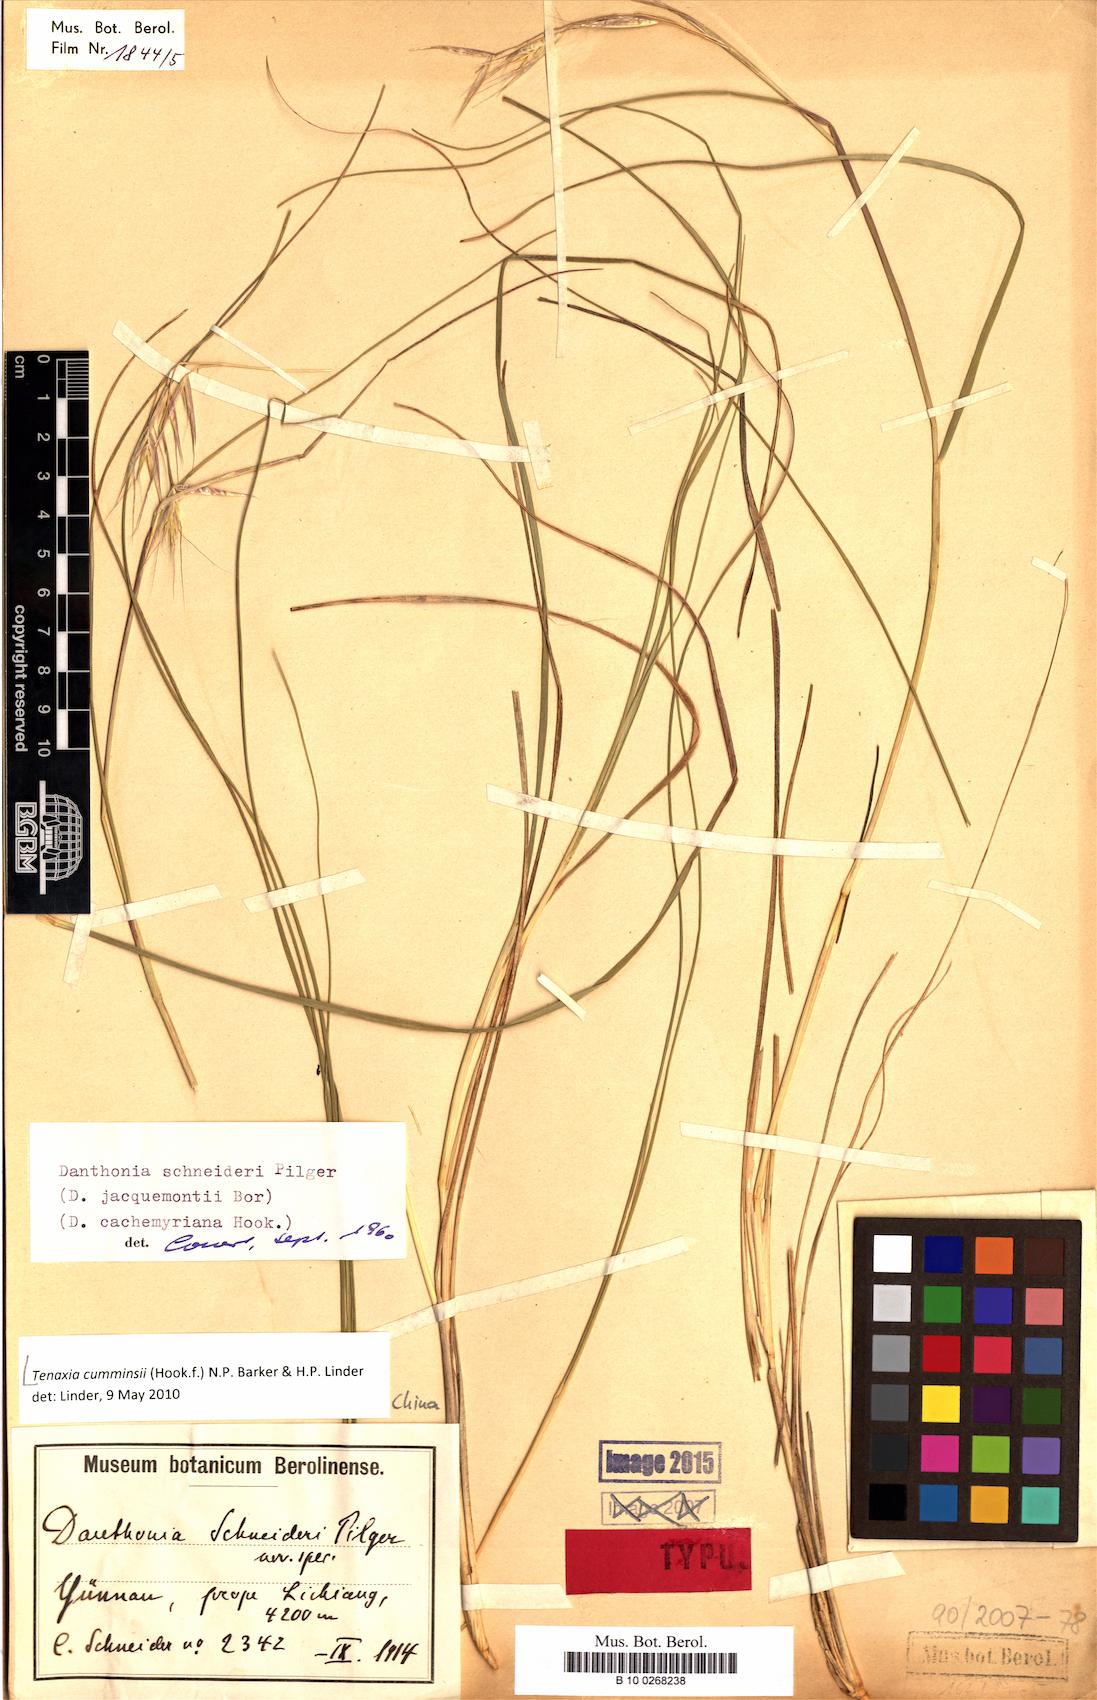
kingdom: Plantae
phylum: Tracheophyta
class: Liliopsida
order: Poales
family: Poaceae
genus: Tenaxia
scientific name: Tenaxia cumminsii
